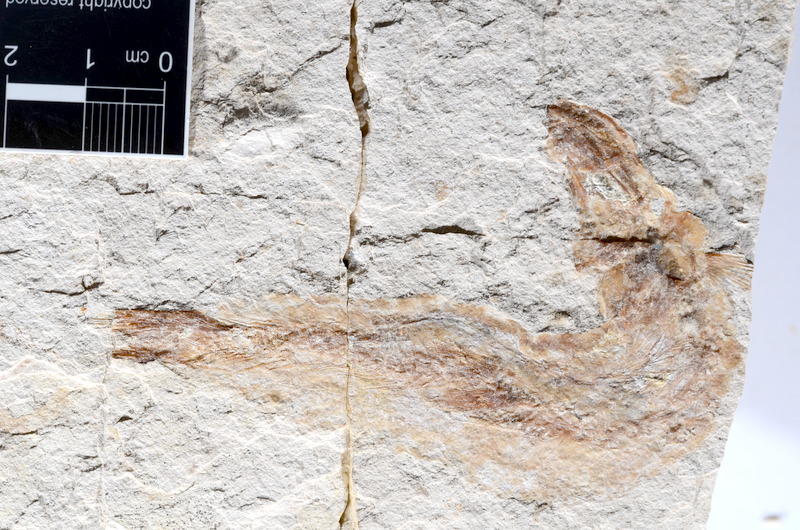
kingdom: Animalia
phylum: Chordata
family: Ascalaboidae
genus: Tharsis
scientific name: Tharsis dubius
